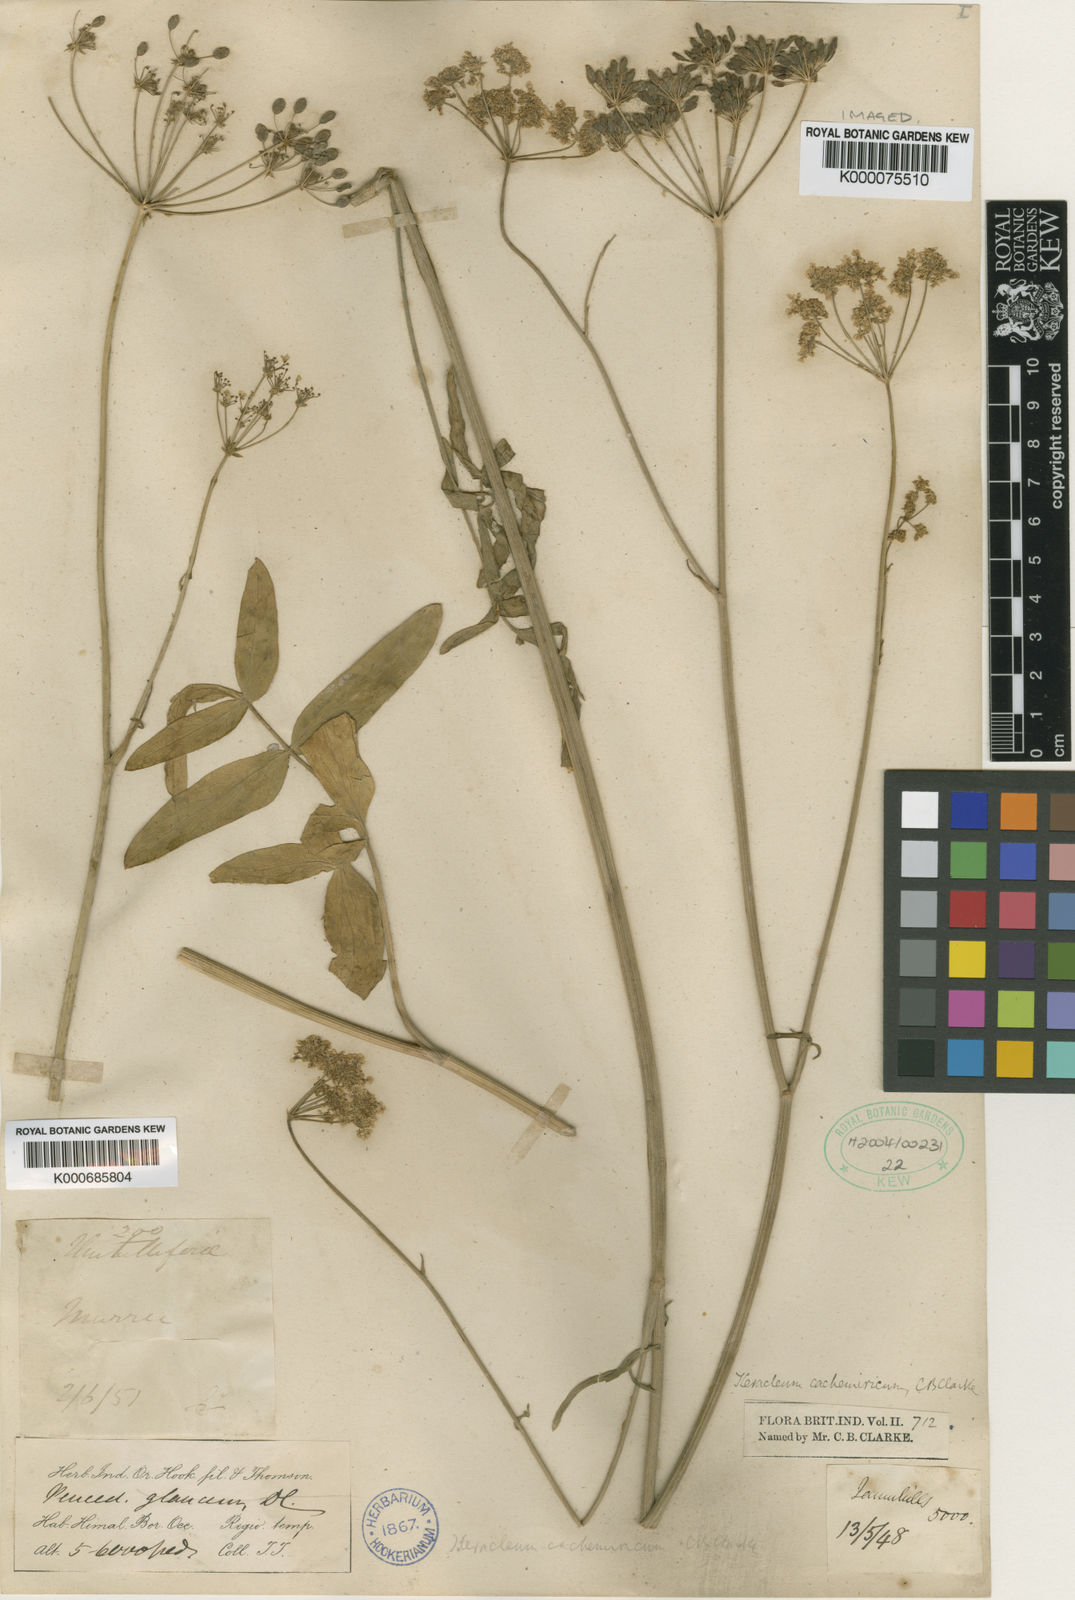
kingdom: Plantae
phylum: Tracheophyta
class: Magnoliopsida
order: Apiales
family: Apiaceae
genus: Tricholaser
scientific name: Tricholaser cachemiricum
